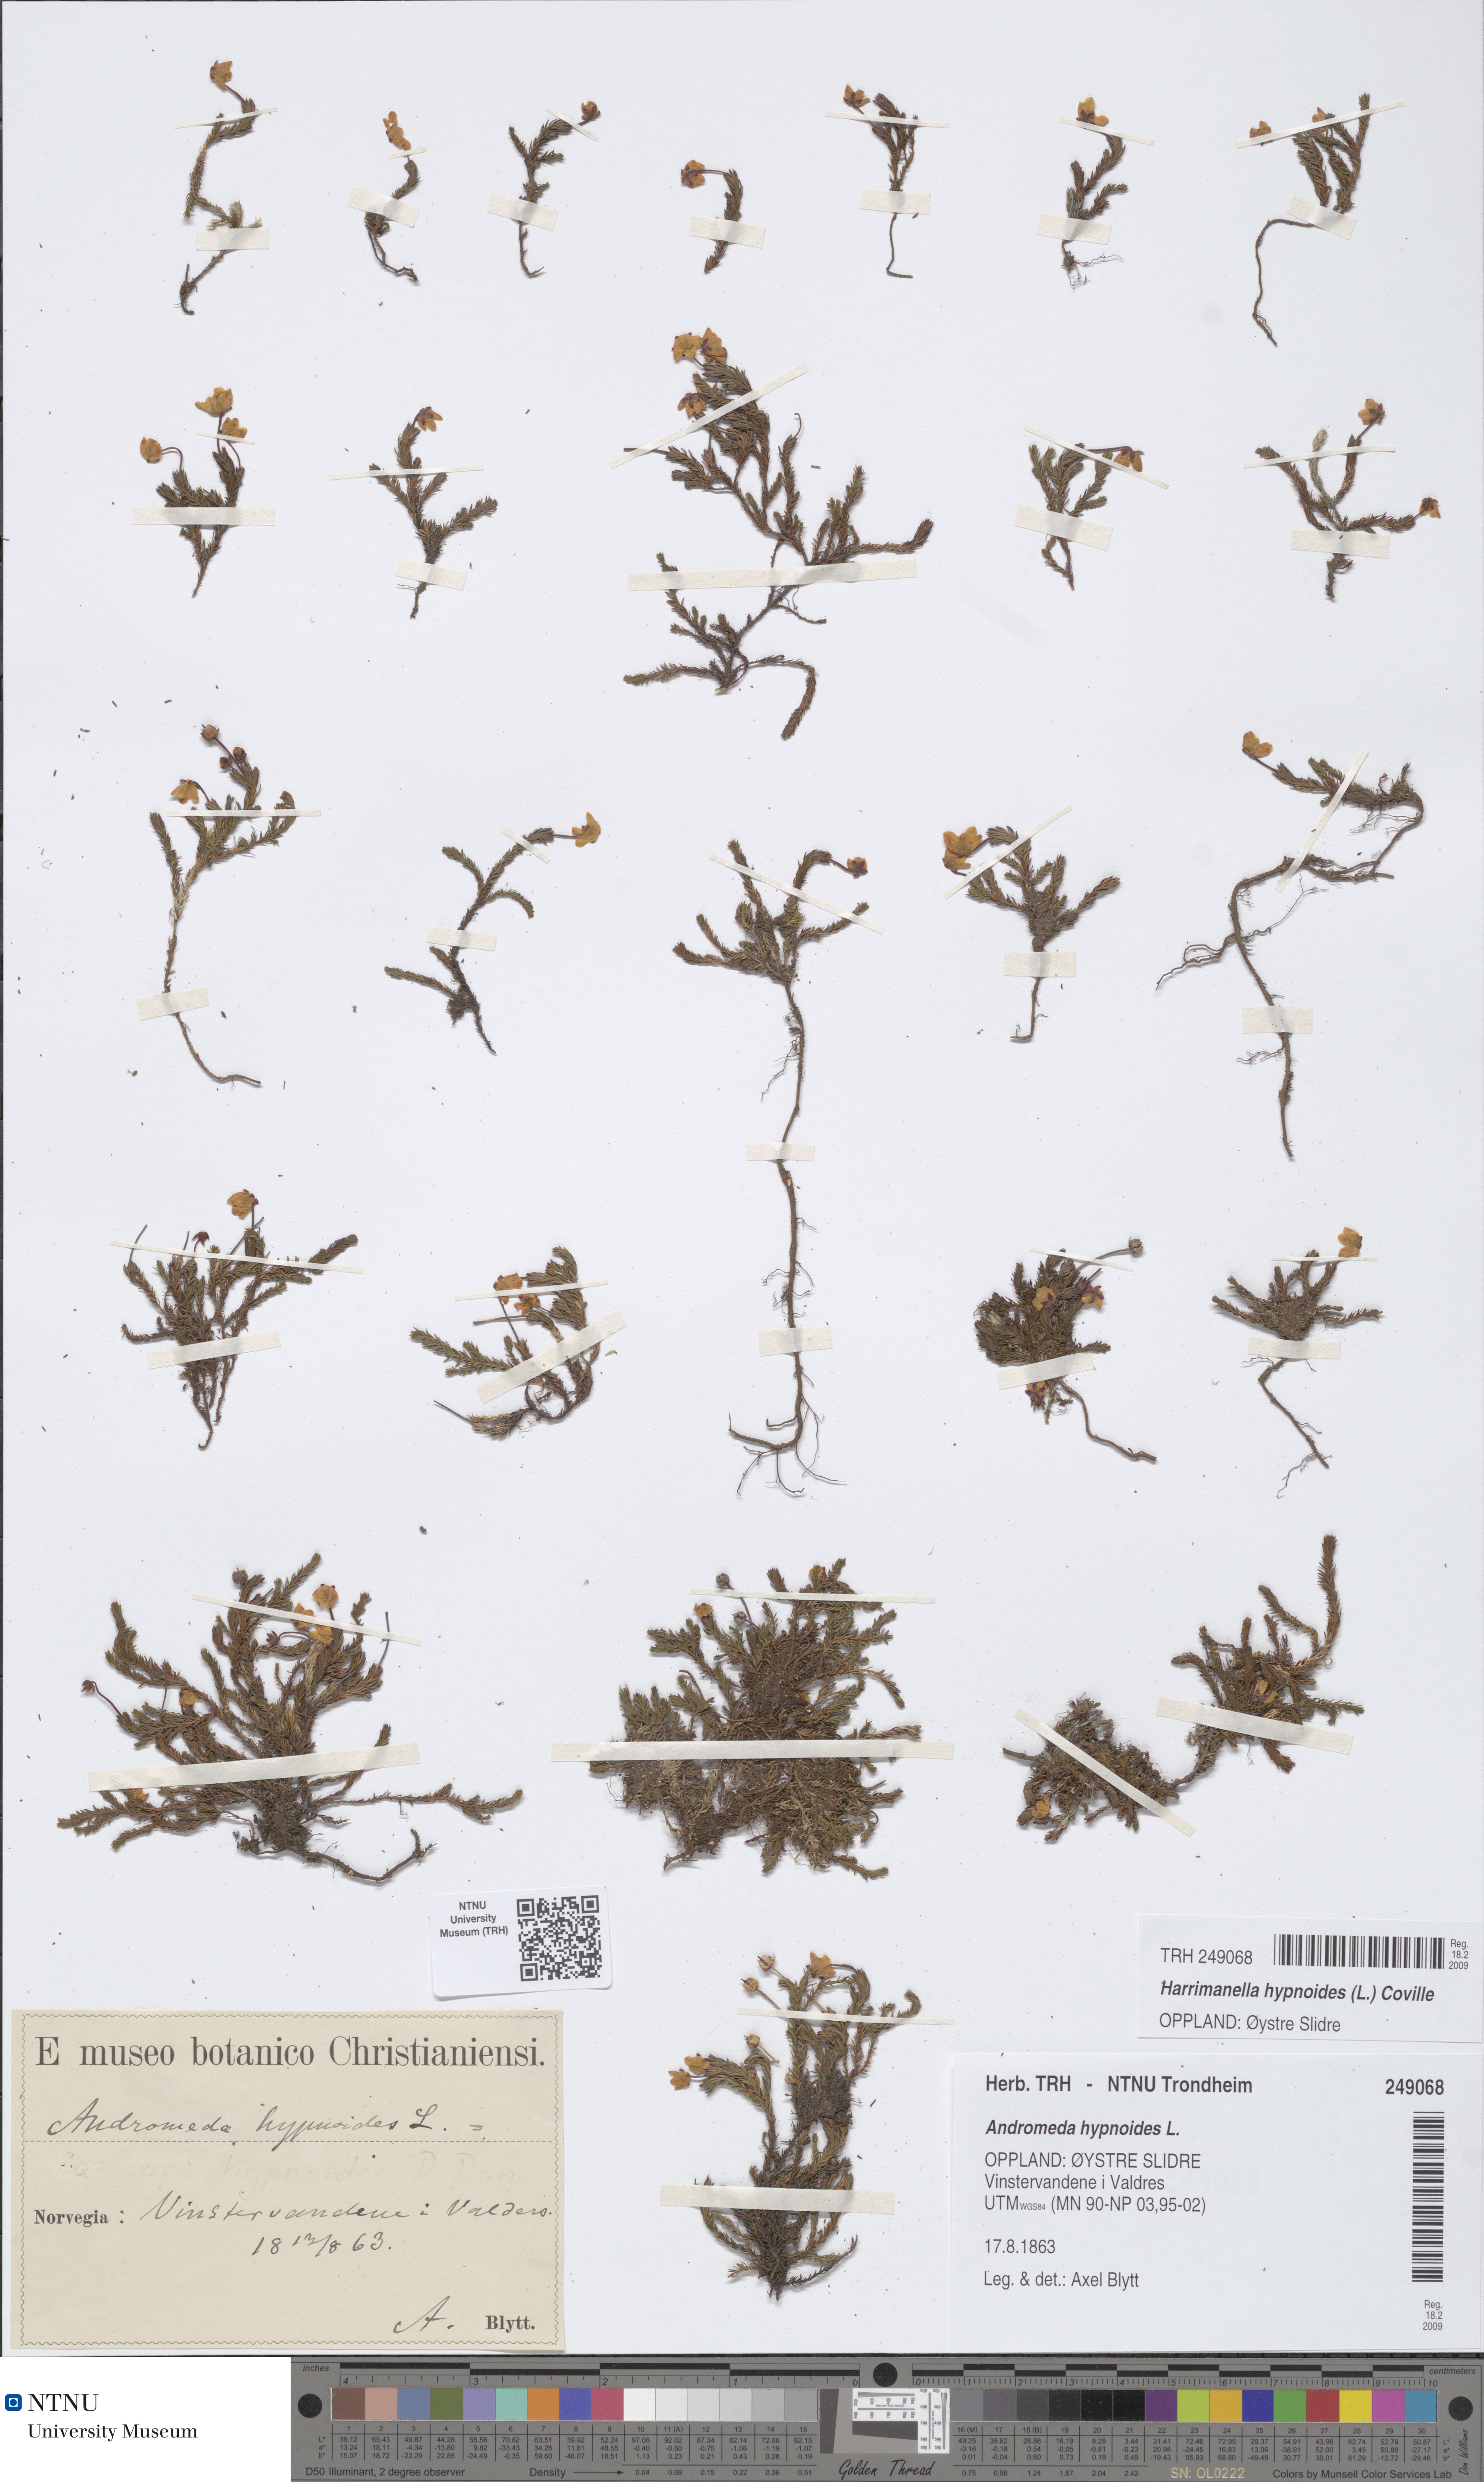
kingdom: Plantae
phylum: Tracheophyta
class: Magnoliopsida
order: Ericales
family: Ericaceae
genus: Harrimanella
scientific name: Harrimanella hypnoides
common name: Moss bell heather
